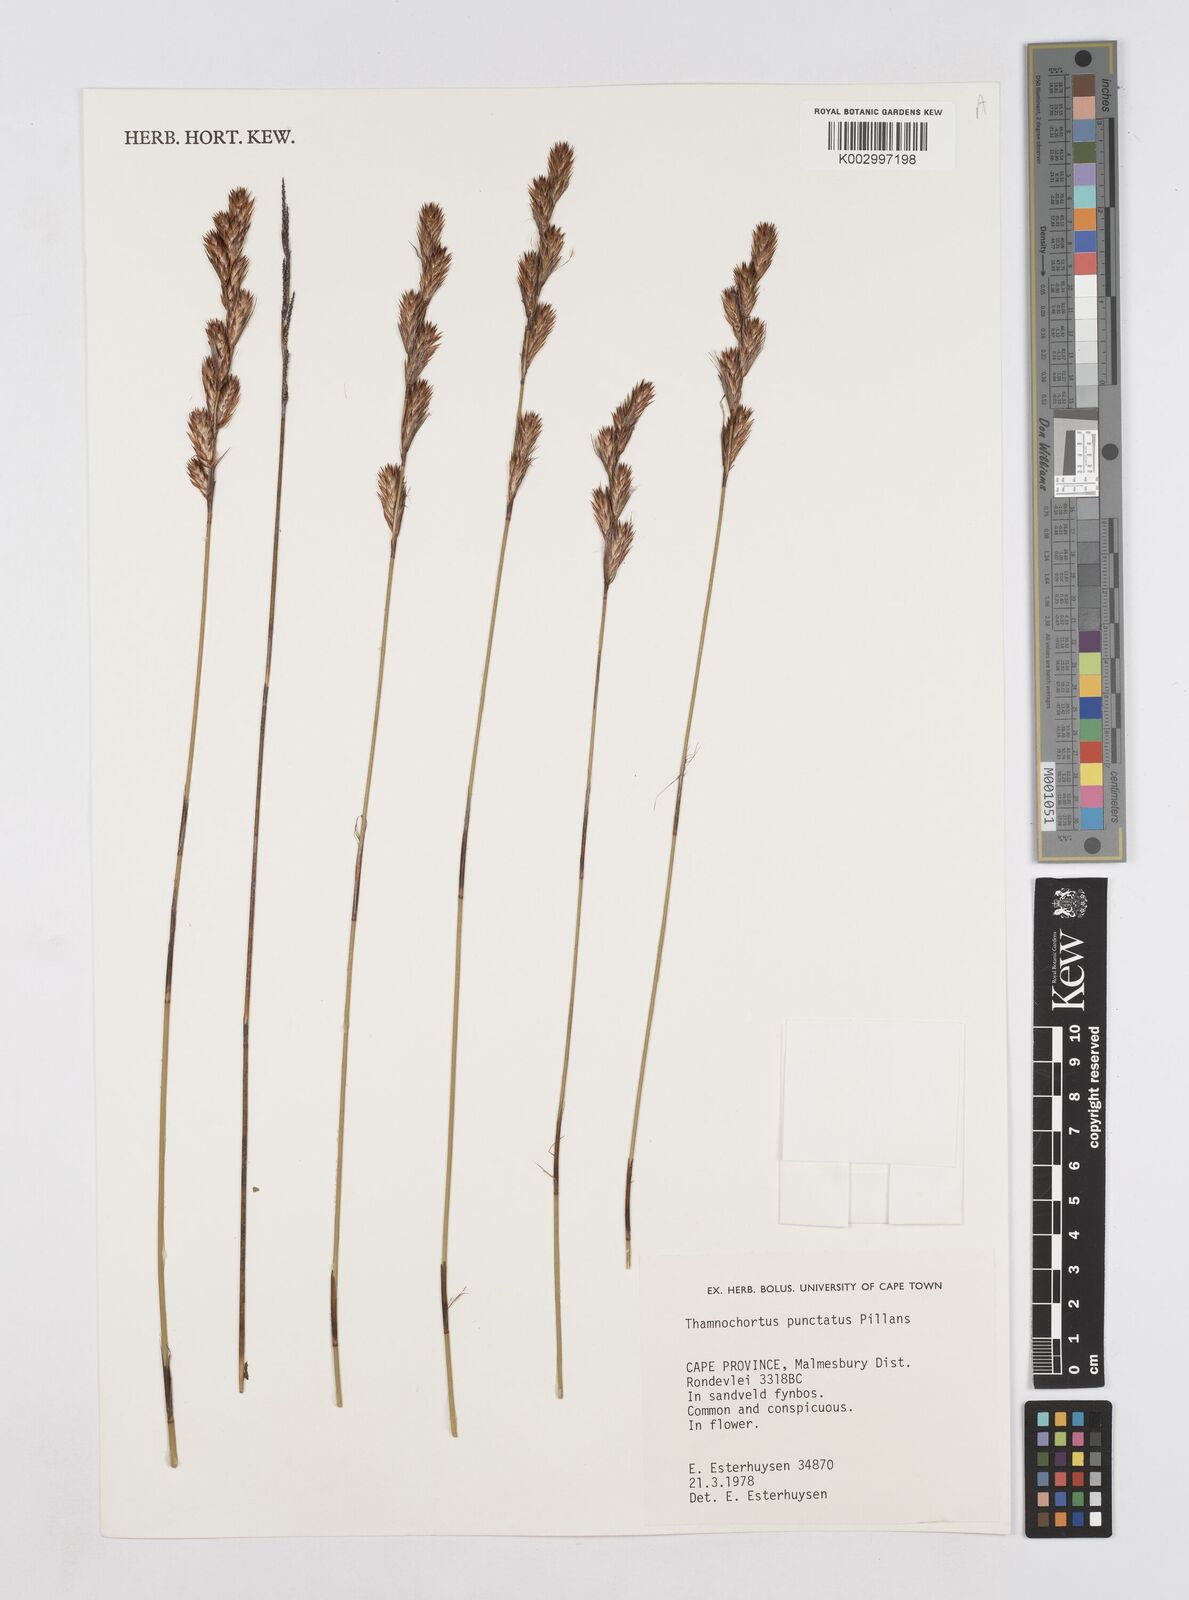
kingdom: Plantae
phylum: Tracheophyta
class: Liliopsida
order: Poales
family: Restionaceae
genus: Thamnochortus
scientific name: Thamnochortus punctatus
